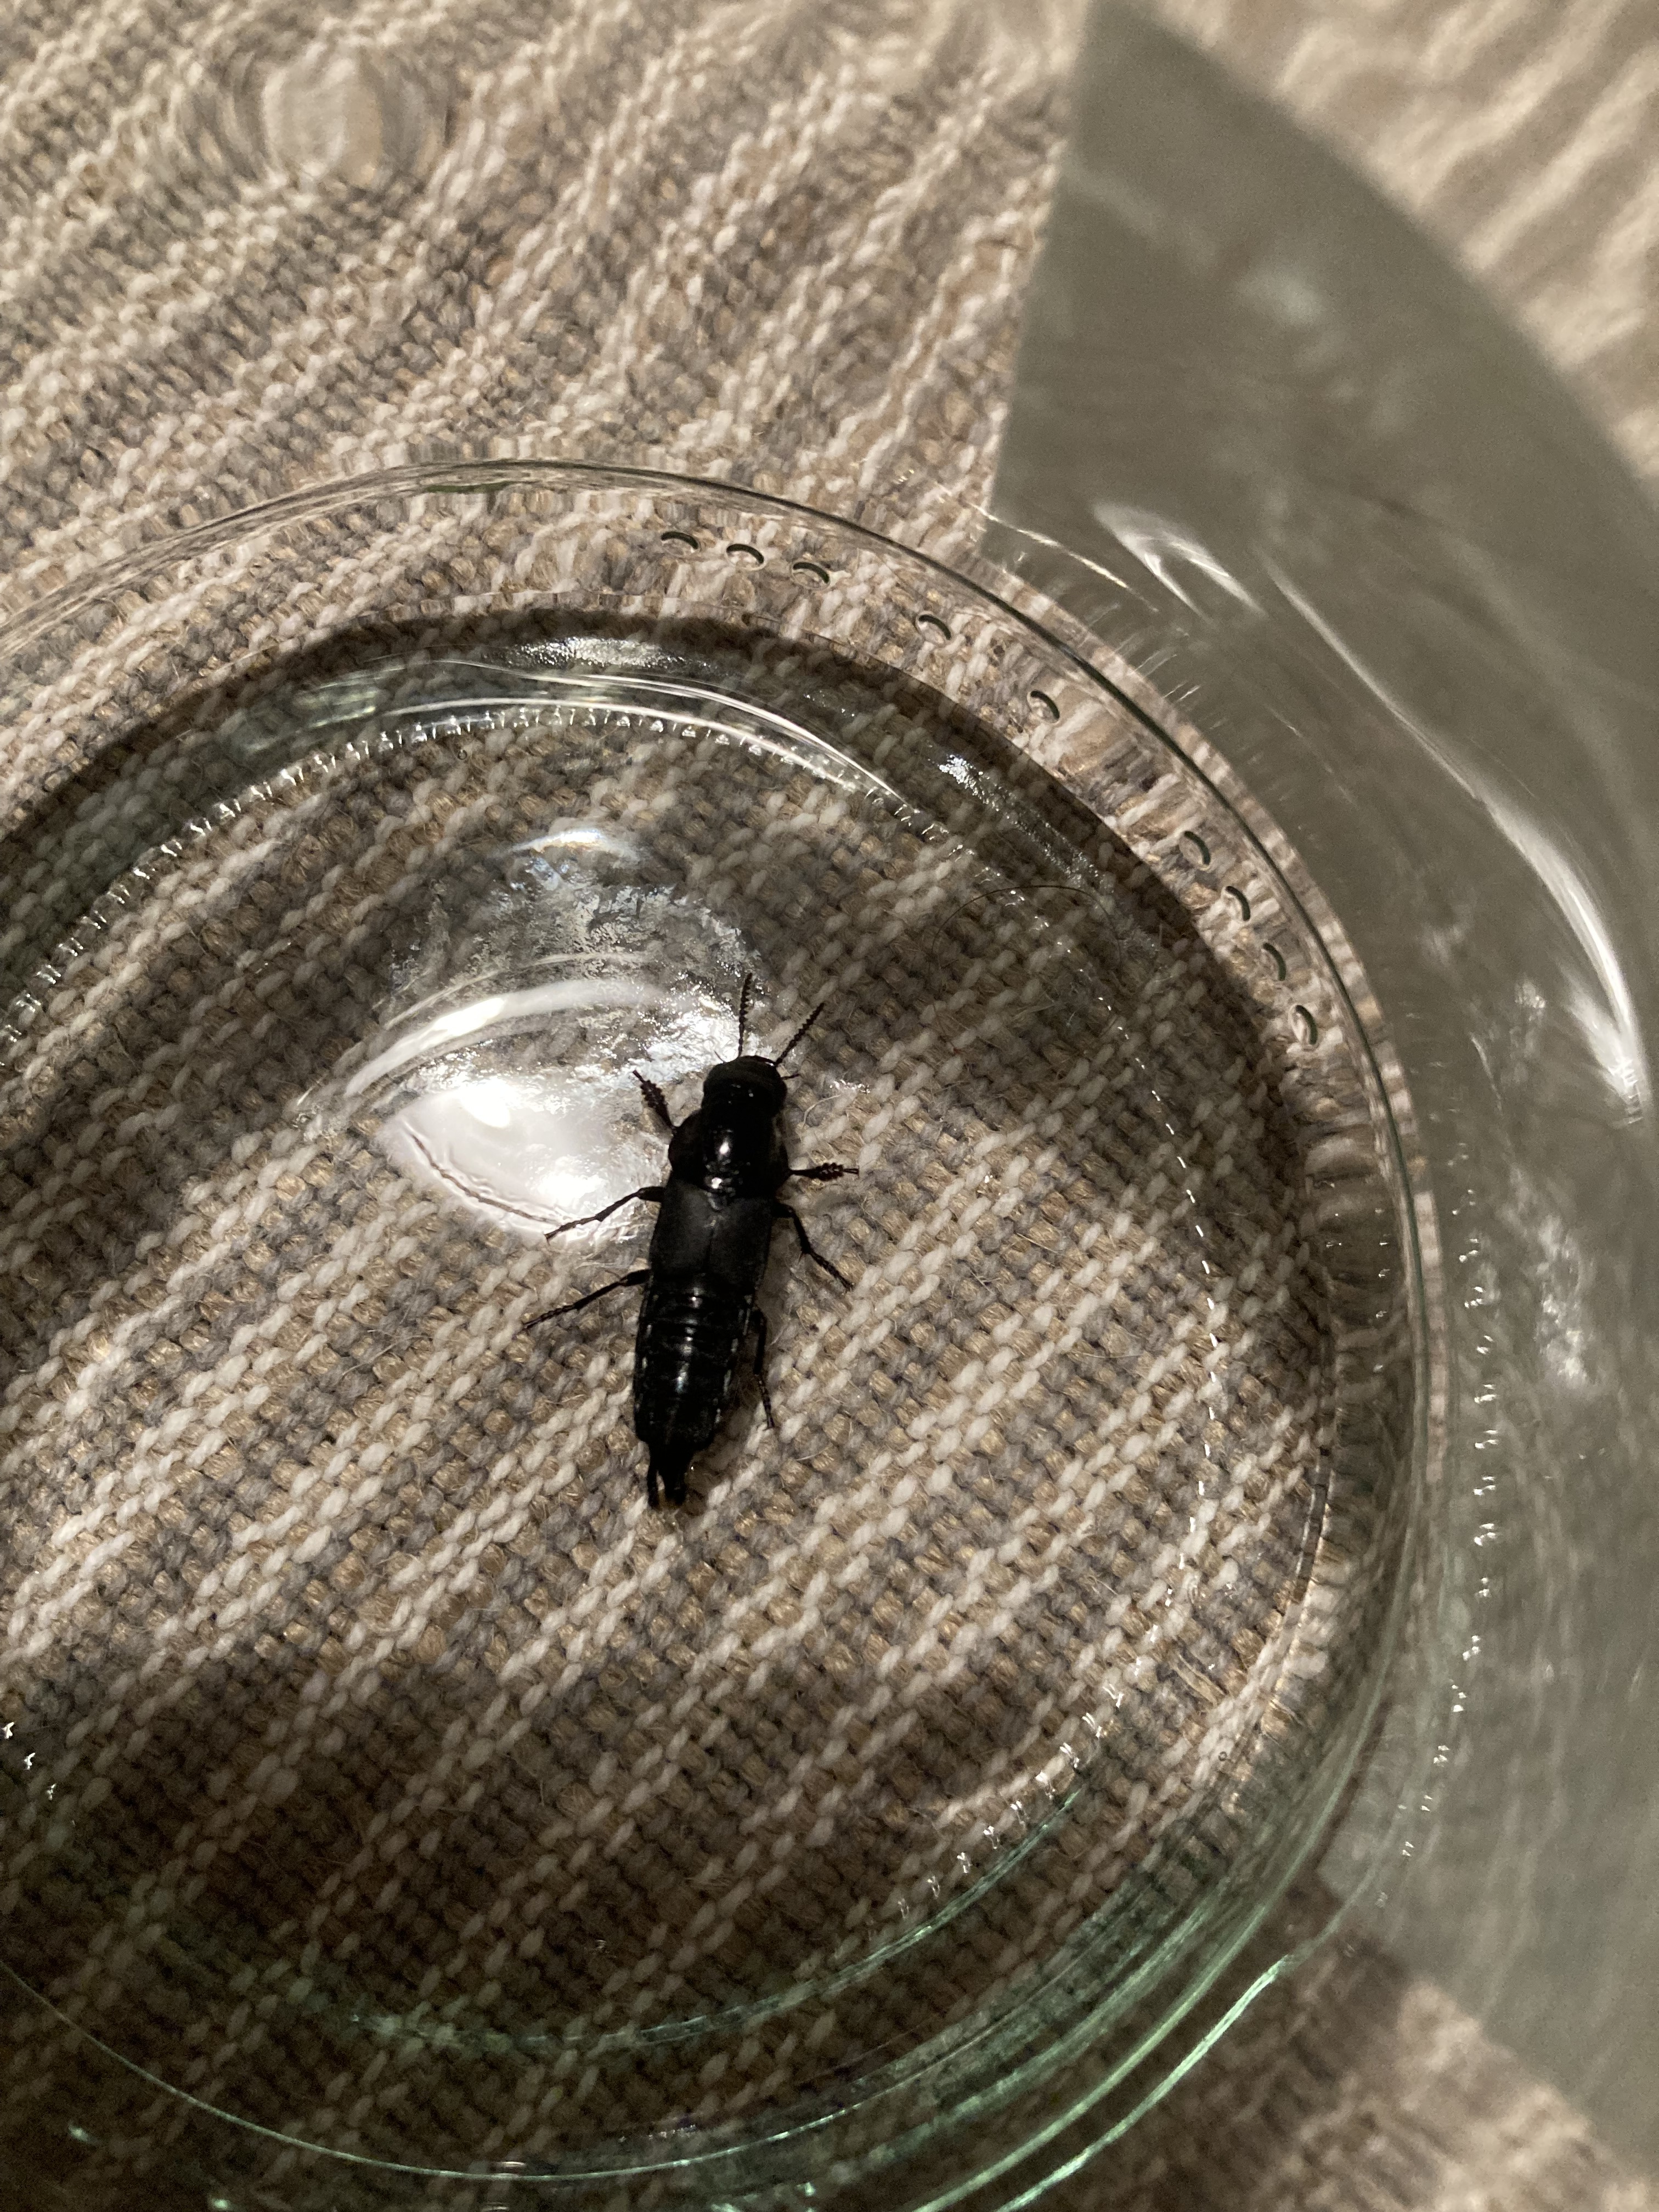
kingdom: Animalia
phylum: Arthropoda
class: Insecta
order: Coleoptera
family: Staphylinidae
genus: Quedius
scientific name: Quedius dilatatus
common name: Hornet rove-beetle
